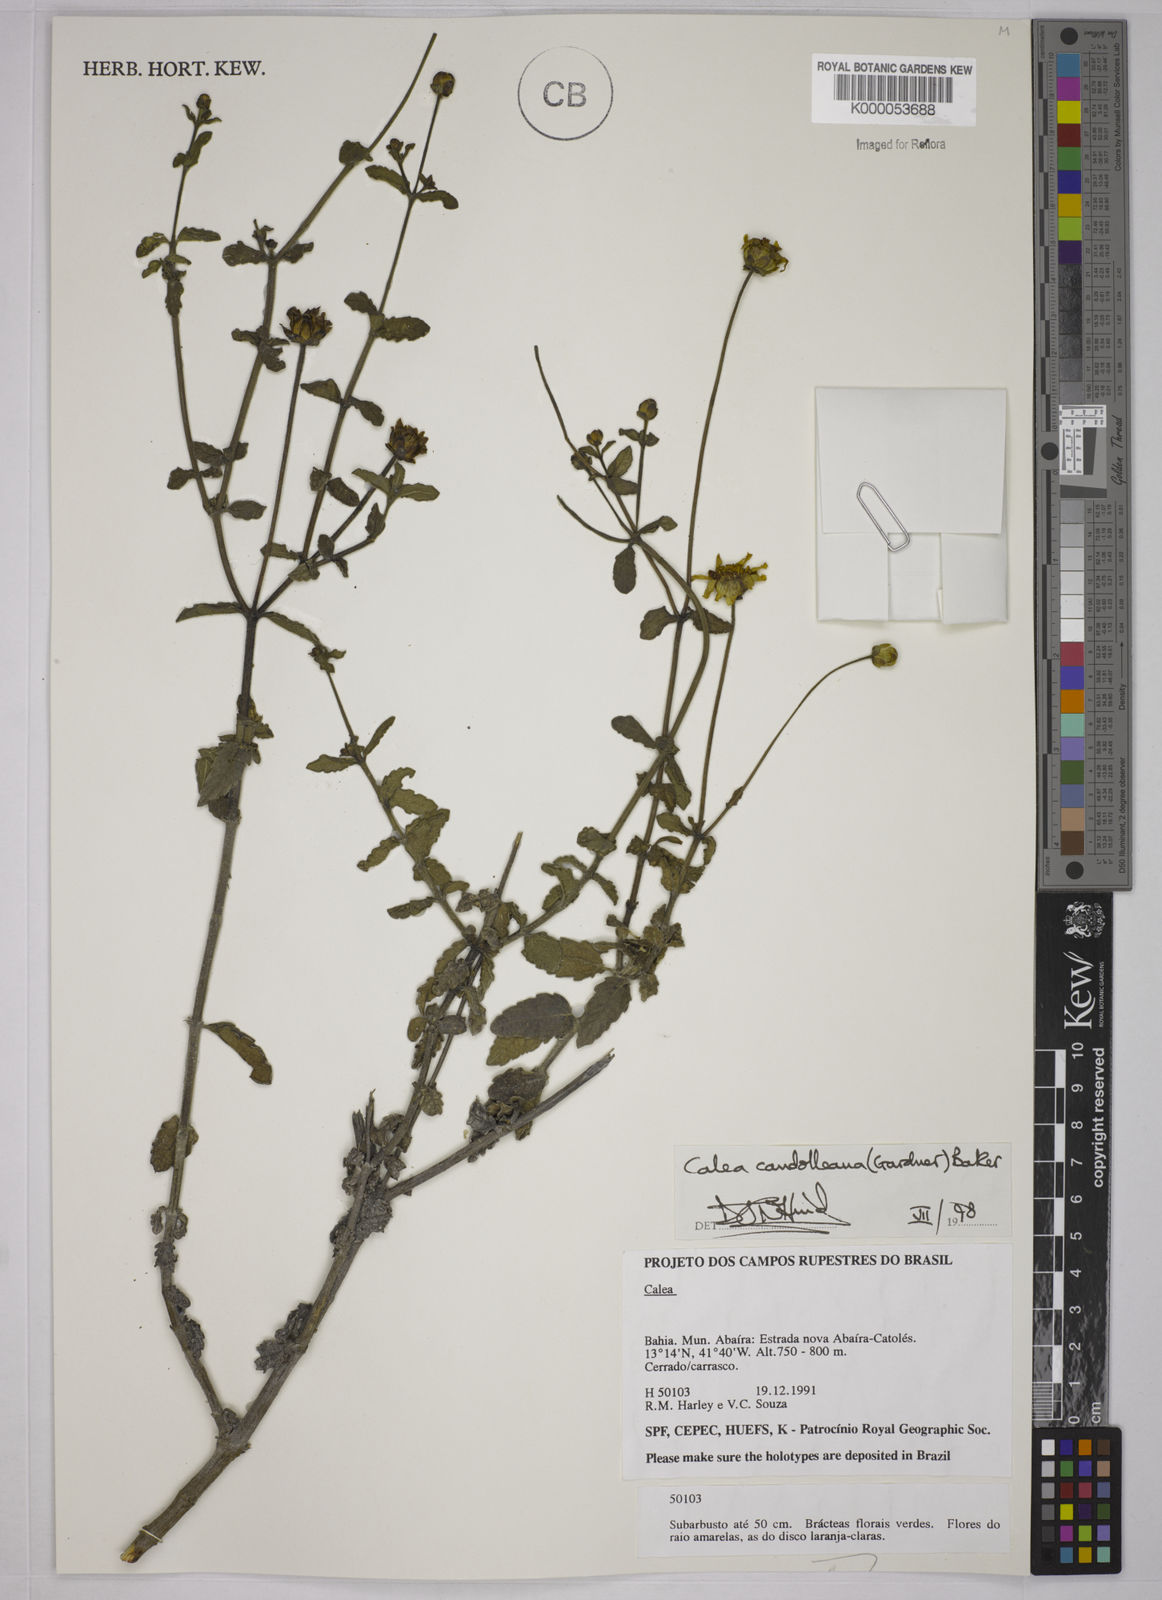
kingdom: Plantae
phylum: Tracheophyta
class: Magnoliopsida
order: Asterales
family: Asteraceae
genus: Calea
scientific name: Calea candolleana
